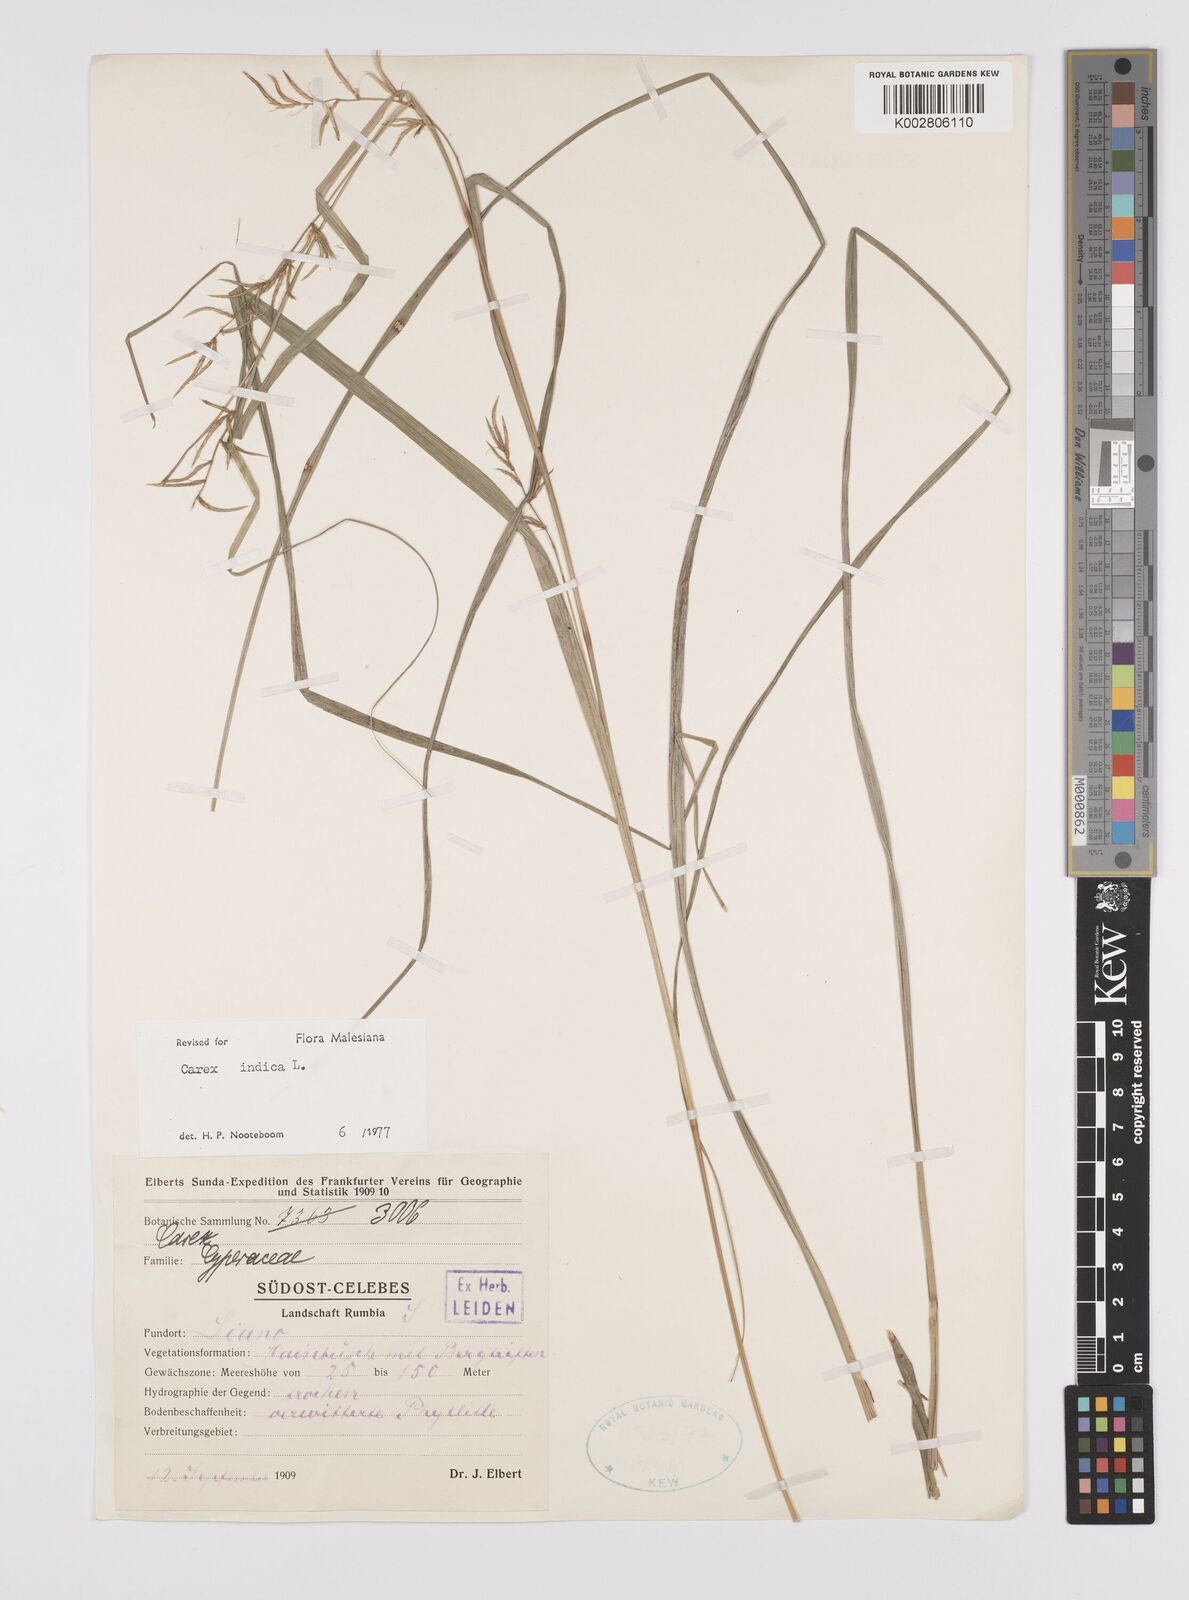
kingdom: Plantae
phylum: Tracheophyta
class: Liliopsida
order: Poales
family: Cyperaceae
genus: Carex
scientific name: Carex indica
